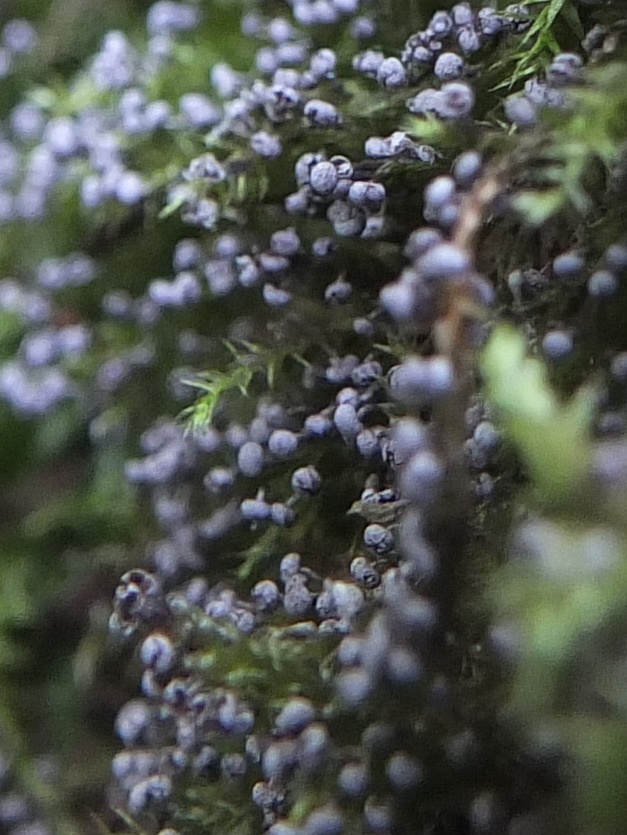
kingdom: Protozoa
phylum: Mycetozoa
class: Myxomycetes
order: Physarales
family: Physaraceae
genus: Physarum
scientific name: Physarum album
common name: nikkende støvknop
